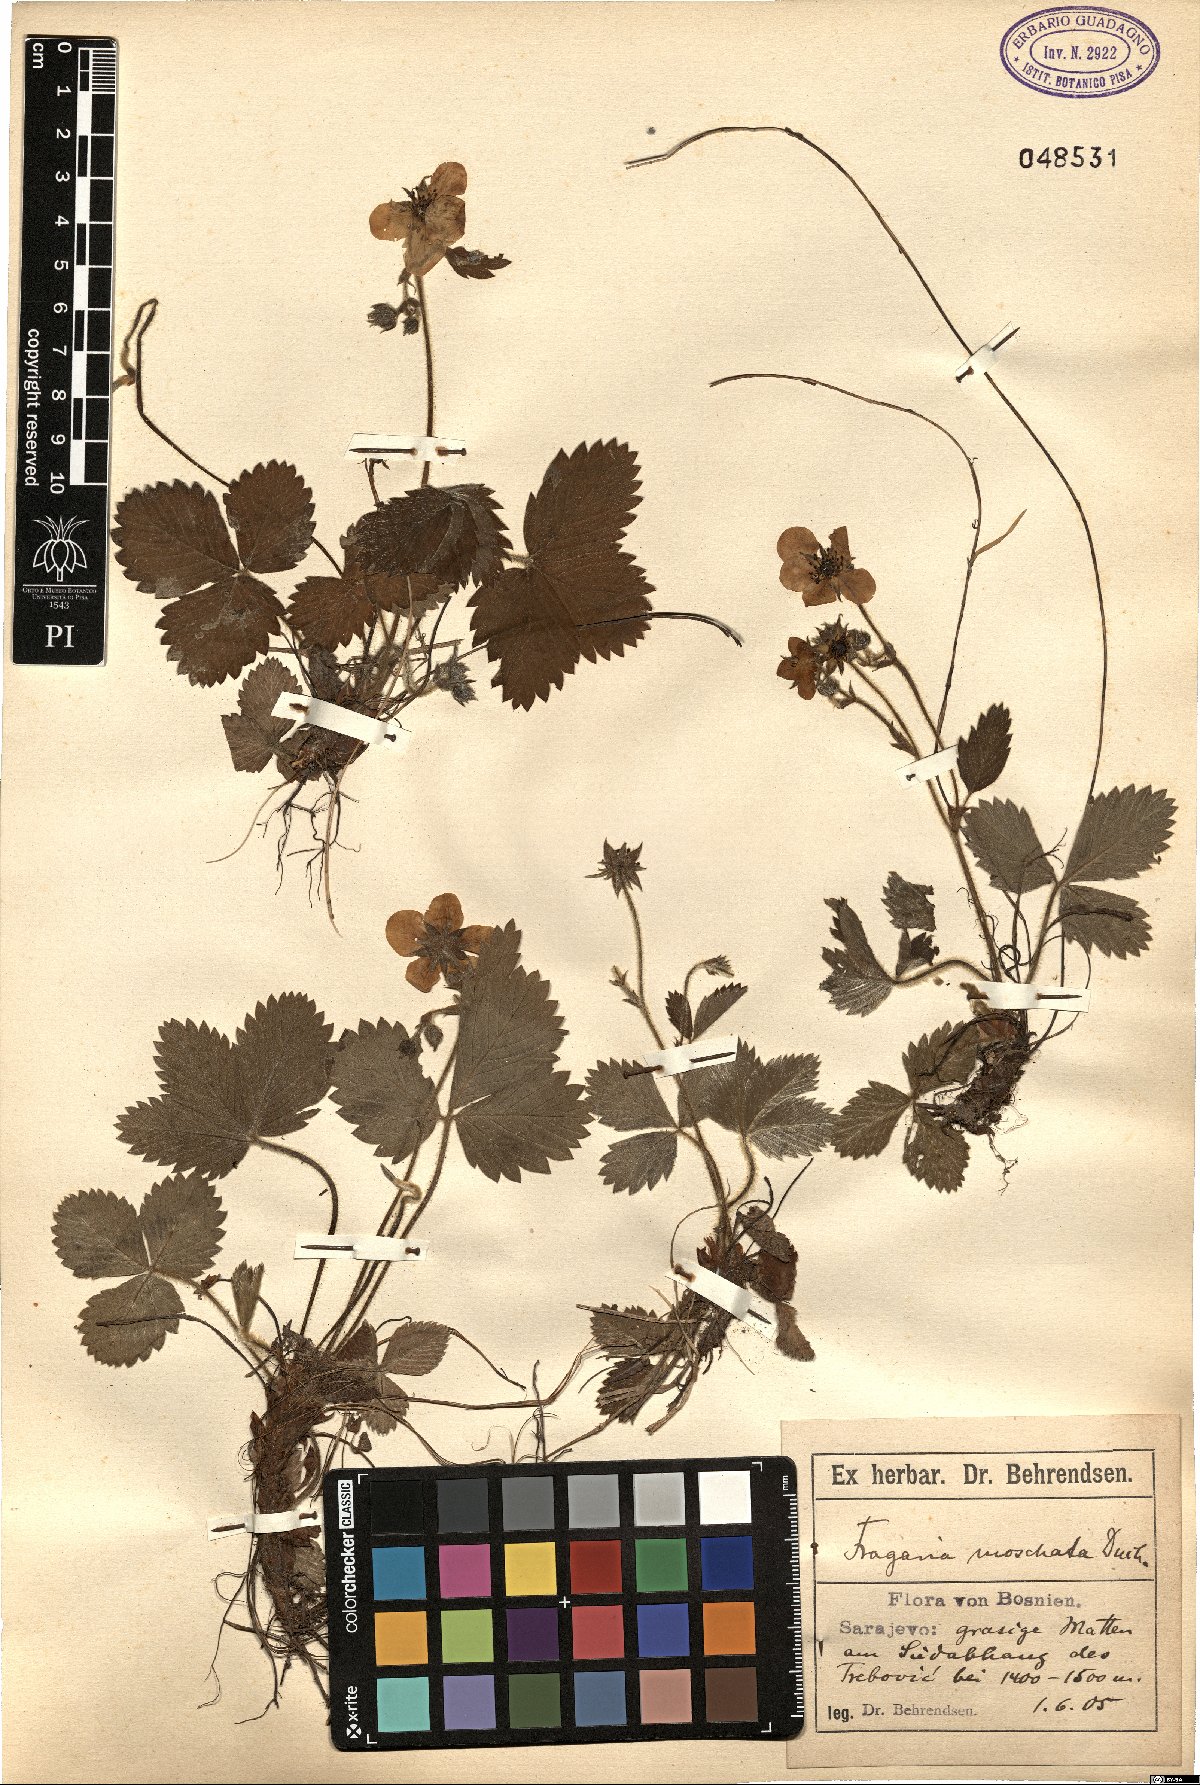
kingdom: Plantae
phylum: Tracheophyta
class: Magnoliopsida
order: Rosales
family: Rosaceae
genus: Fragaria
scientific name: Fragaria moschata
